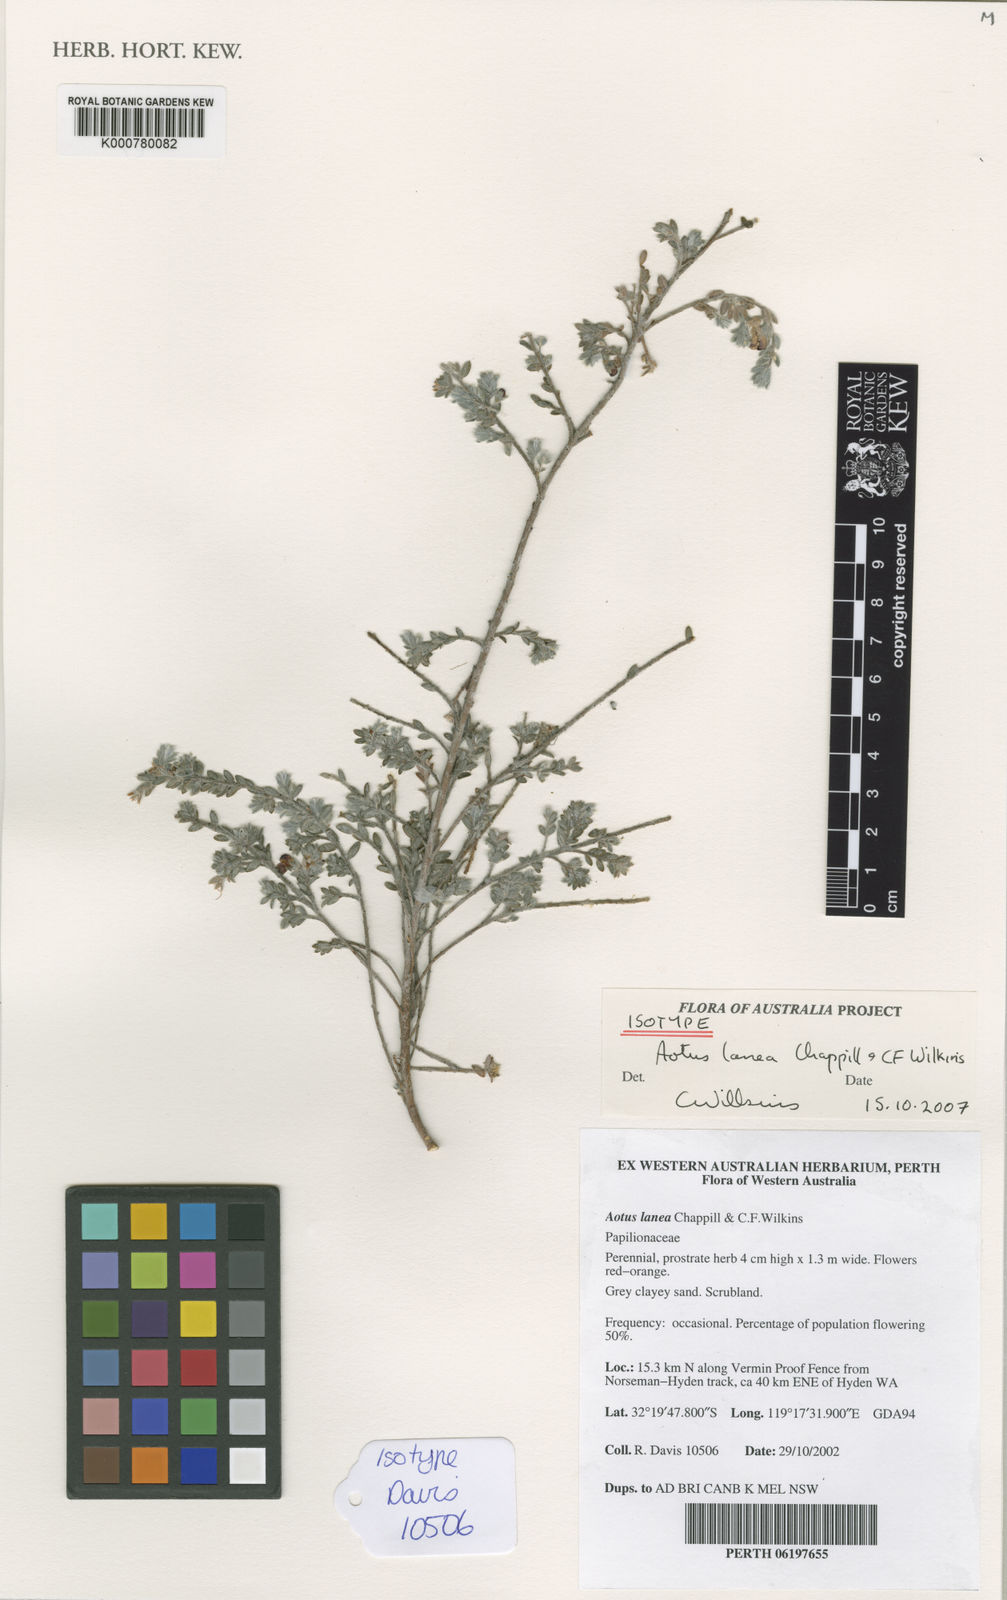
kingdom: Plantae
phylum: Tracheophyta
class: Magnoliopsida
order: Fabales
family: Fabaceae
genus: Aotus
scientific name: Aotus lanea
